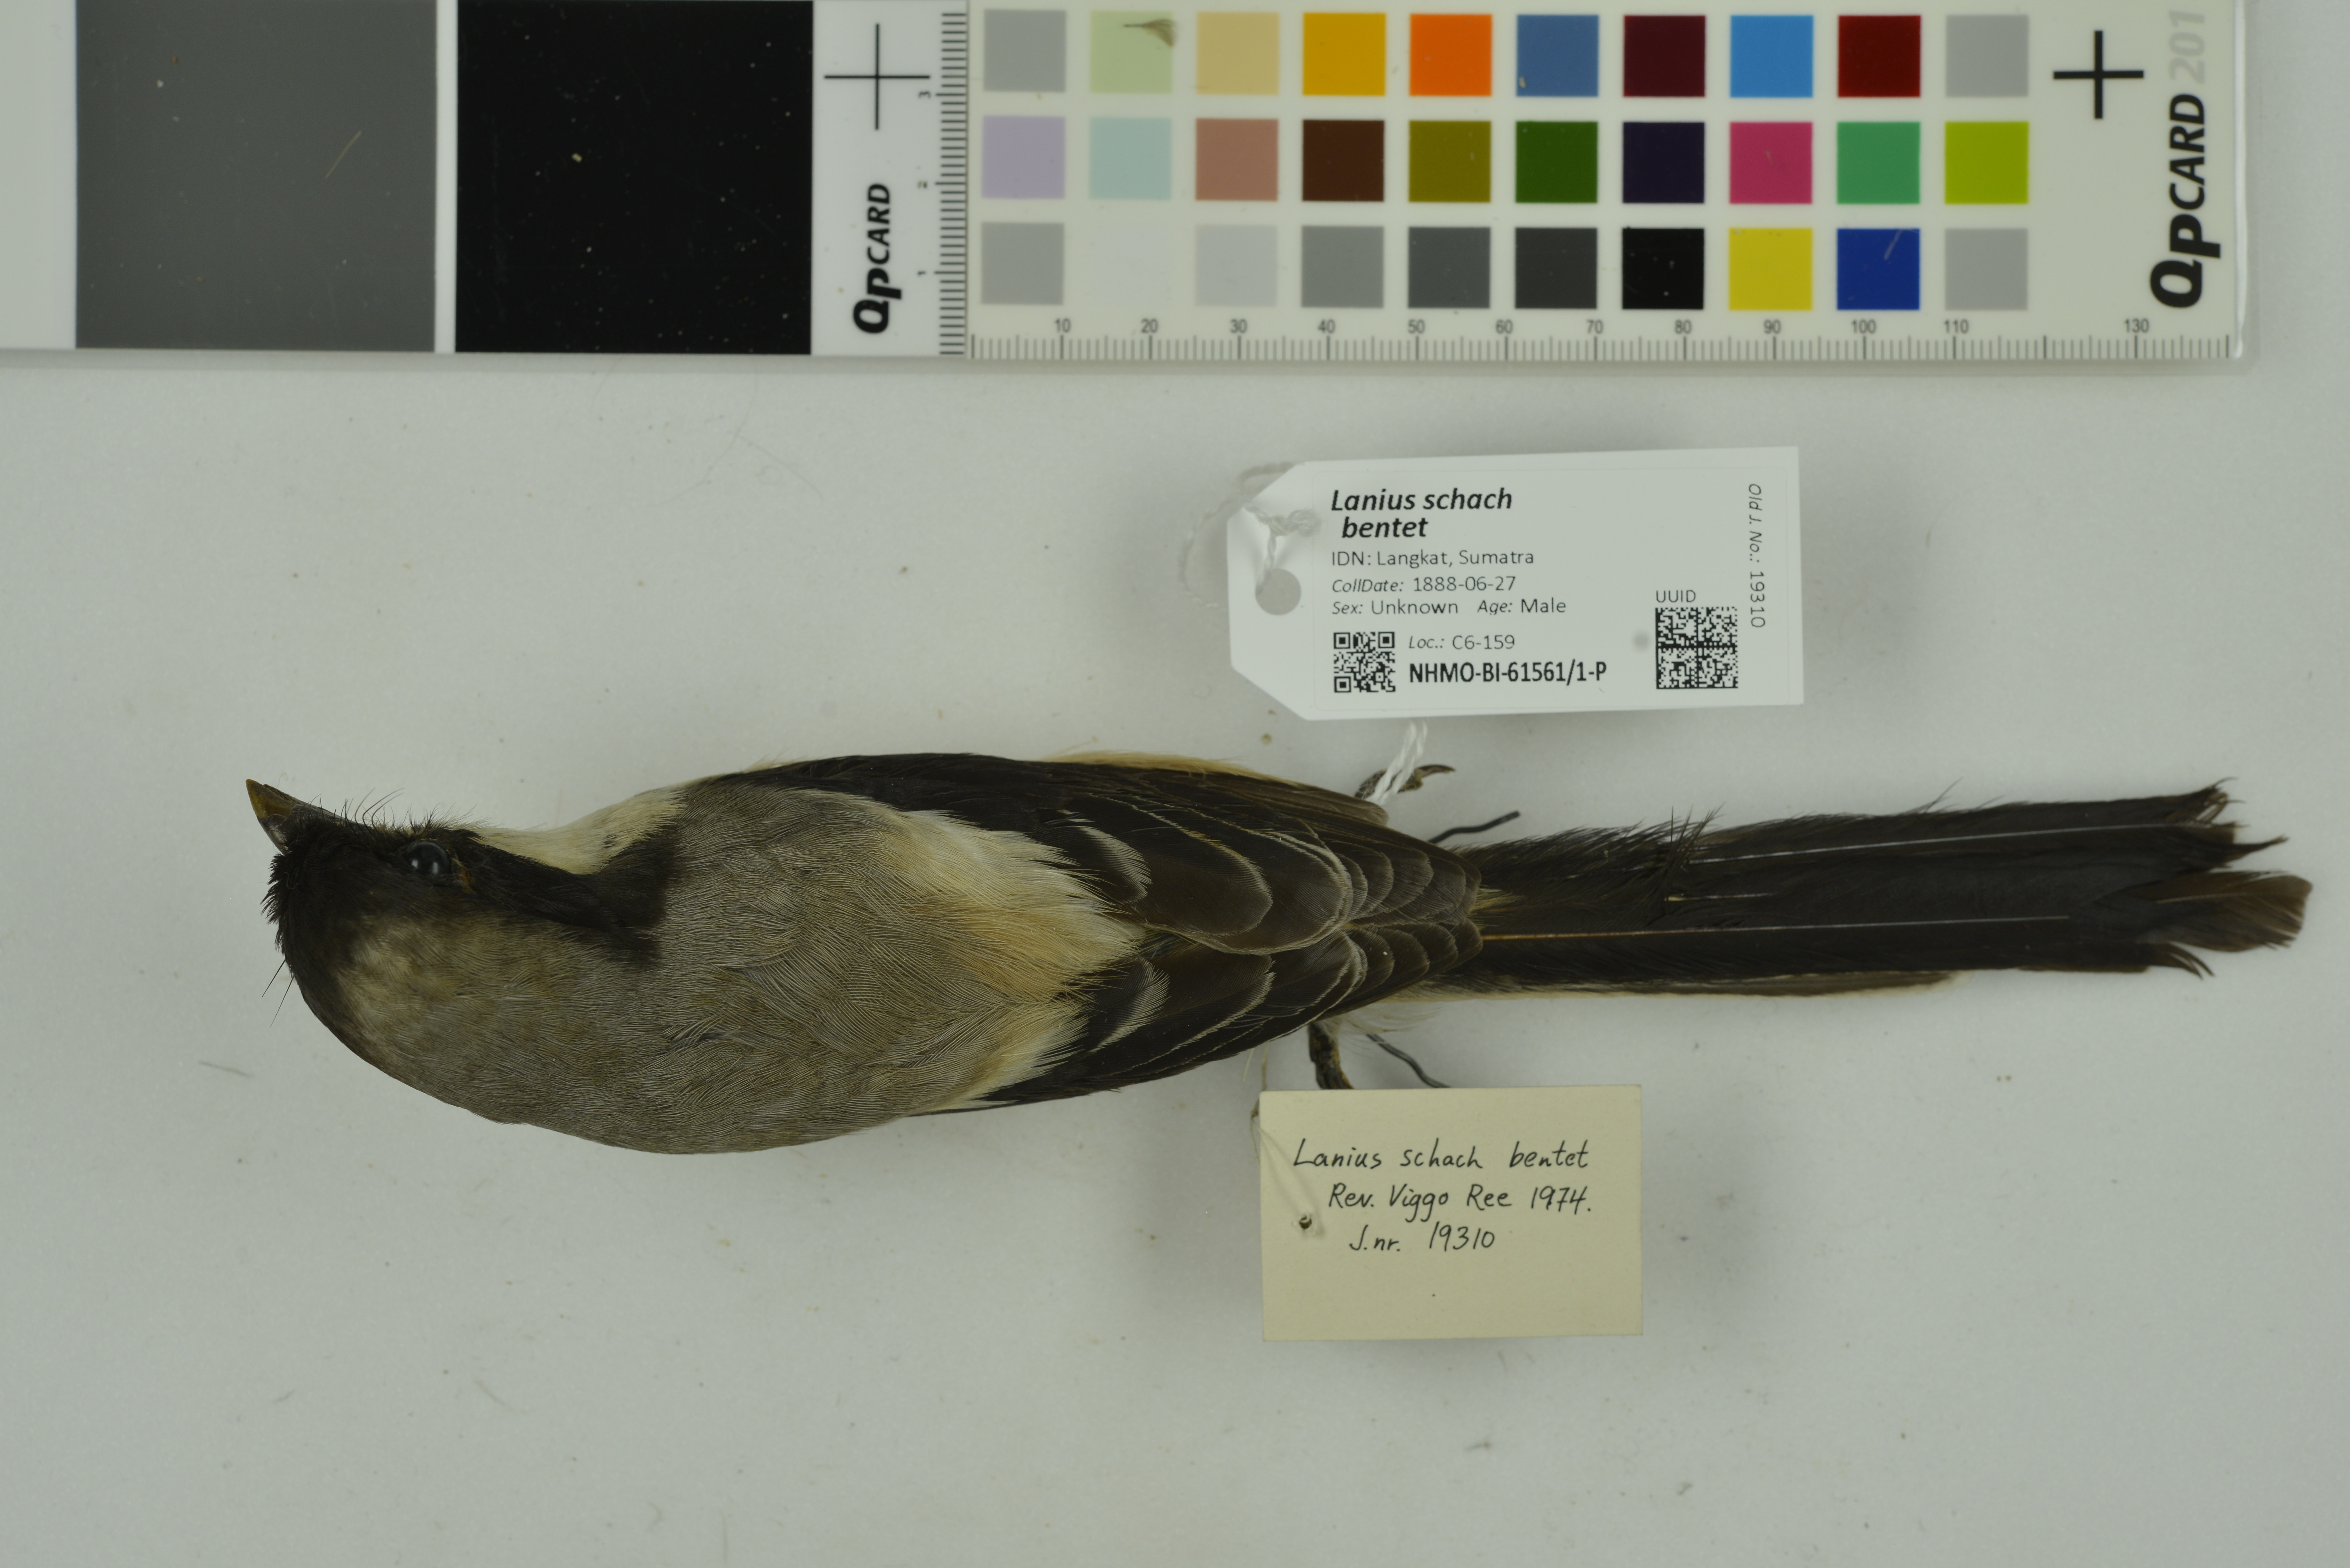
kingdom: Animalia
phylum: Chordata
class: Aves
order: Passeriformes
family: Laniidae
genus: Lanius
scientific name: Lanius schach
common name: Long-tailed shrike
